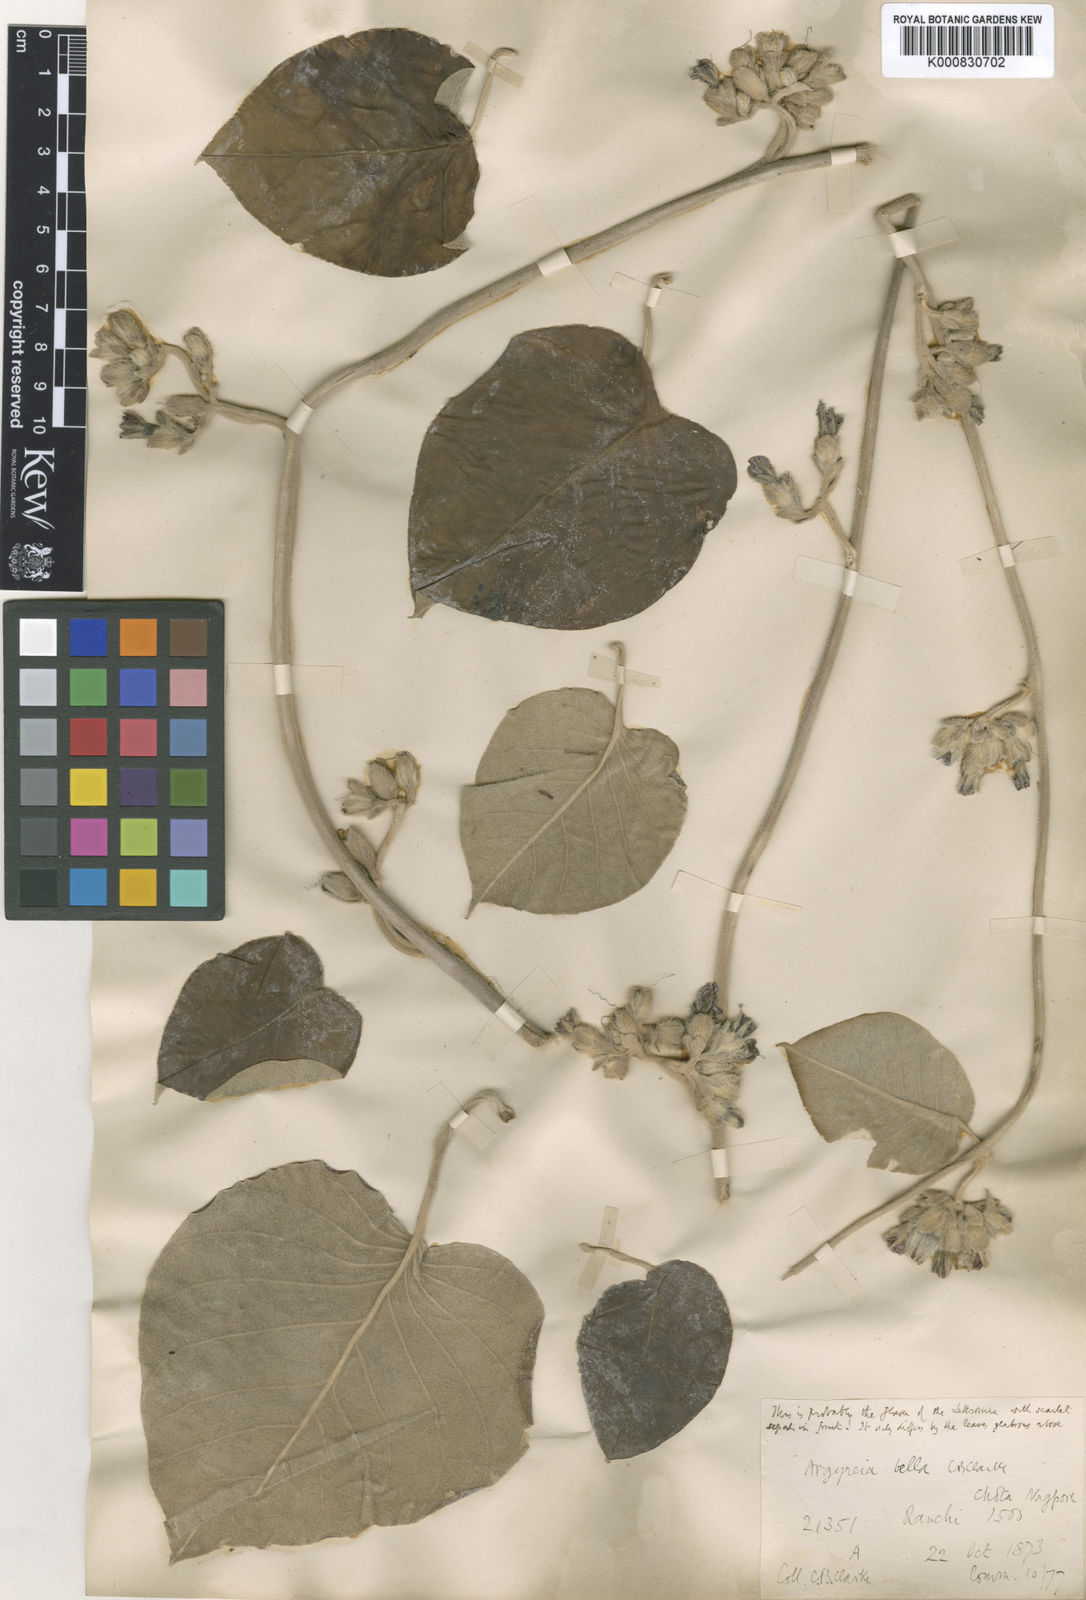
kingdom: Plantae
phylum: Tracheophyta
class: Magnoliopsida
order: Solanales
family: Convolvulaceae
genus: Argyreia
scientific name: Argyreia bella
